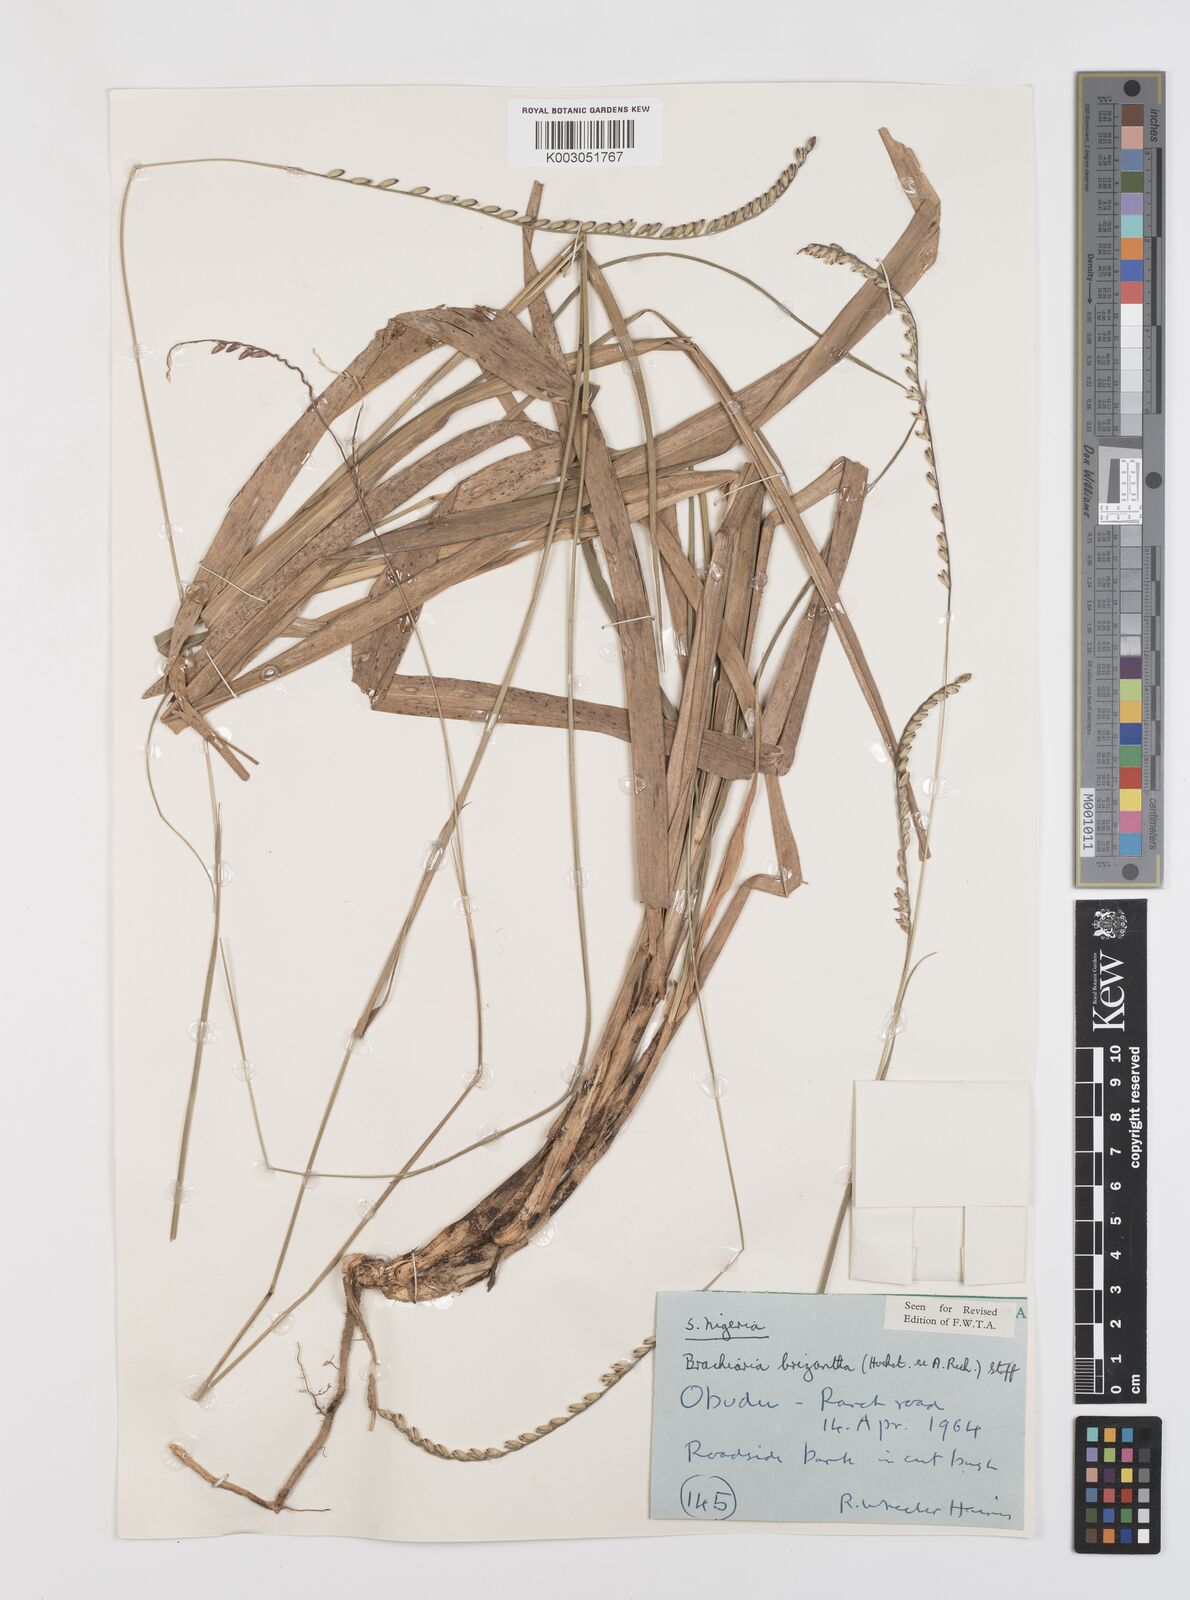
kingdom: Plantae
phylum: Tracheophyta
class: Liliopsida
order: Poales
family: Poaceae
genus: Urochloa
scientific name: Urochloa brizantha
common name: Palisade signalgrass
